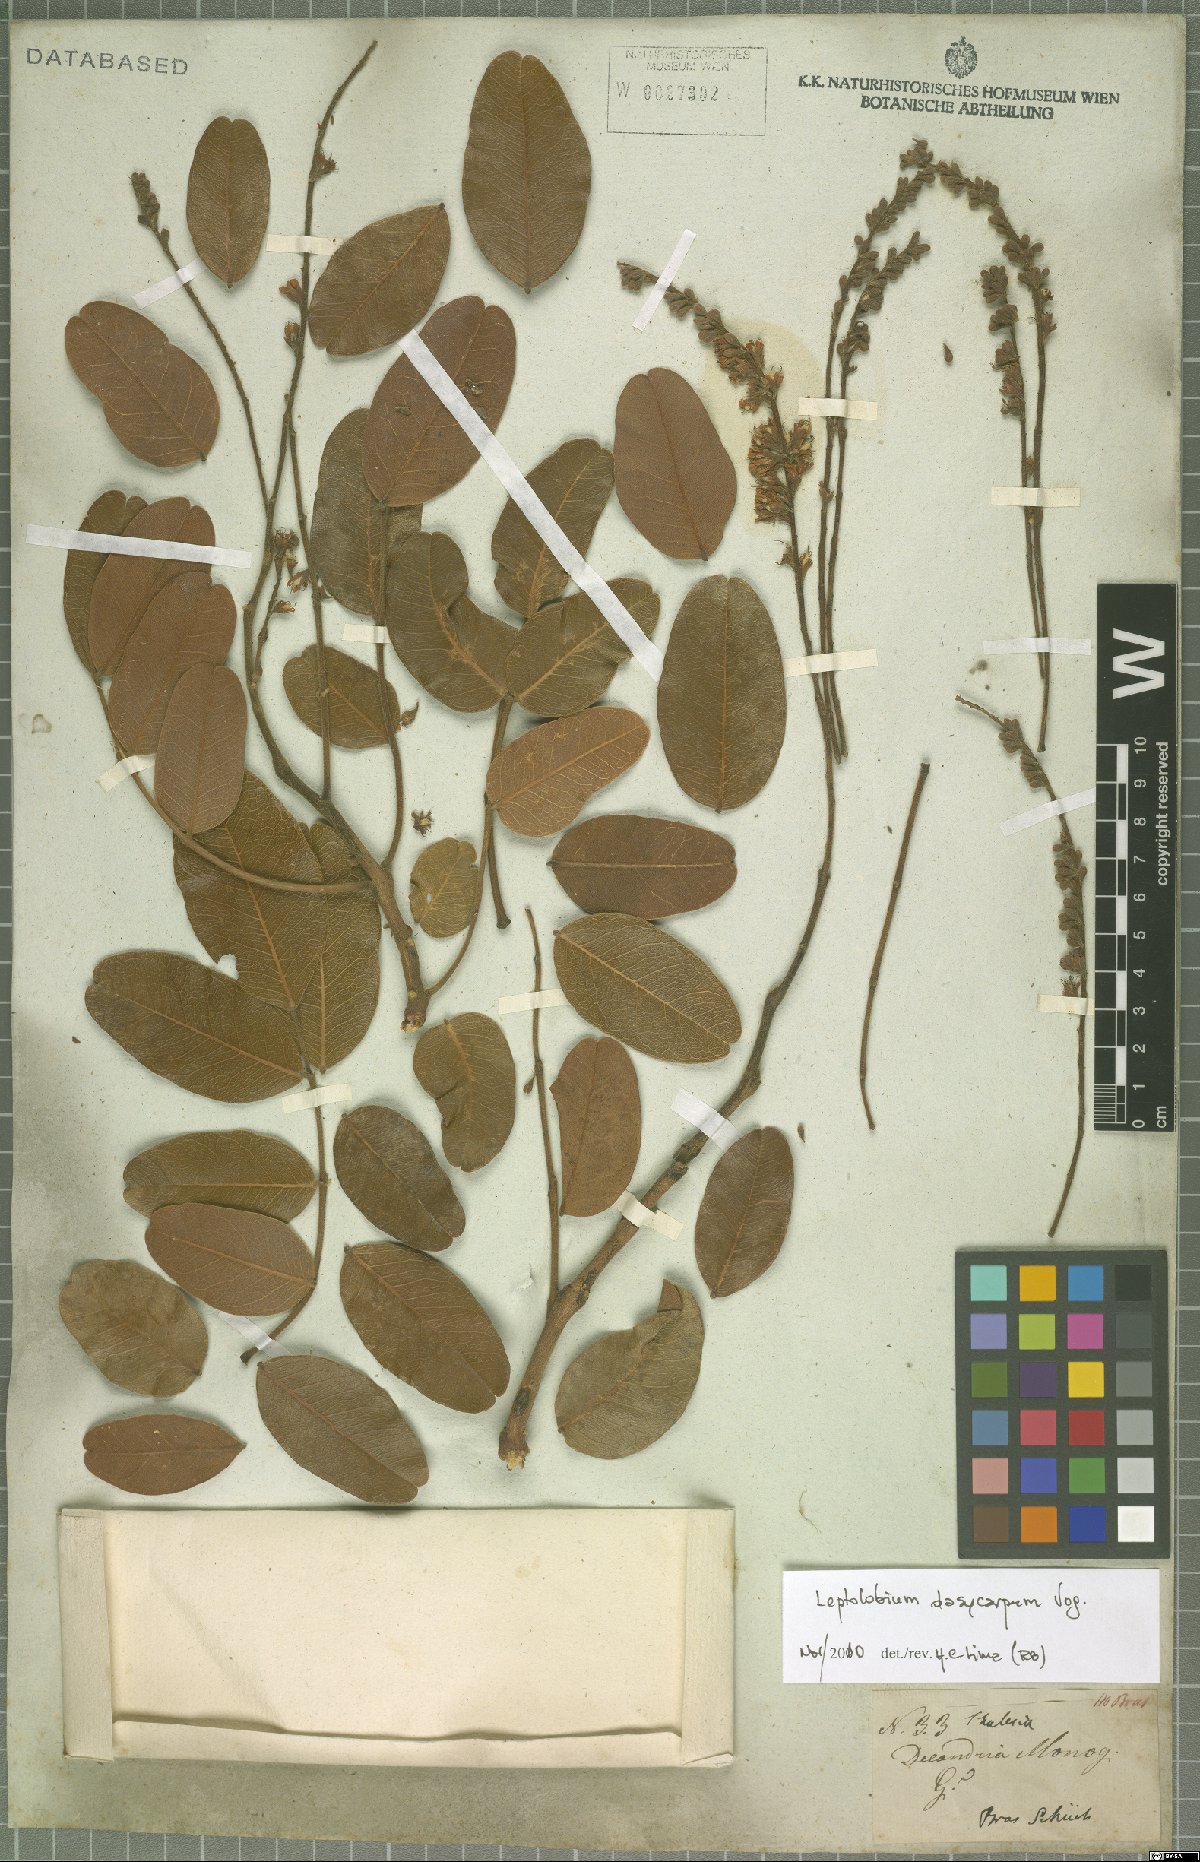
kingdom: Plantae
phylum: Tracheophyta
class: Magnoliopsida
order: Fabales
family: Fabaceae
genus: Leptolobium
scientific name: Leptolobium dasycarpum
